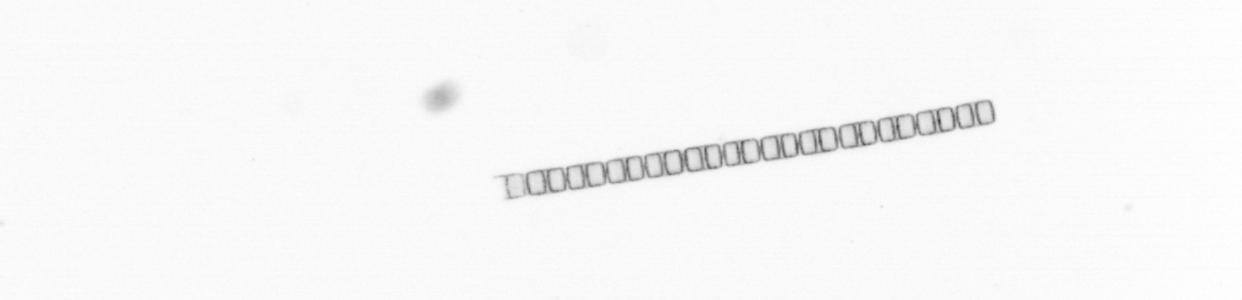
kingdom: Chromista
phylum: Ochrophyta
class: Bacillariophyceae
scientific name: Bacillariophyceae
